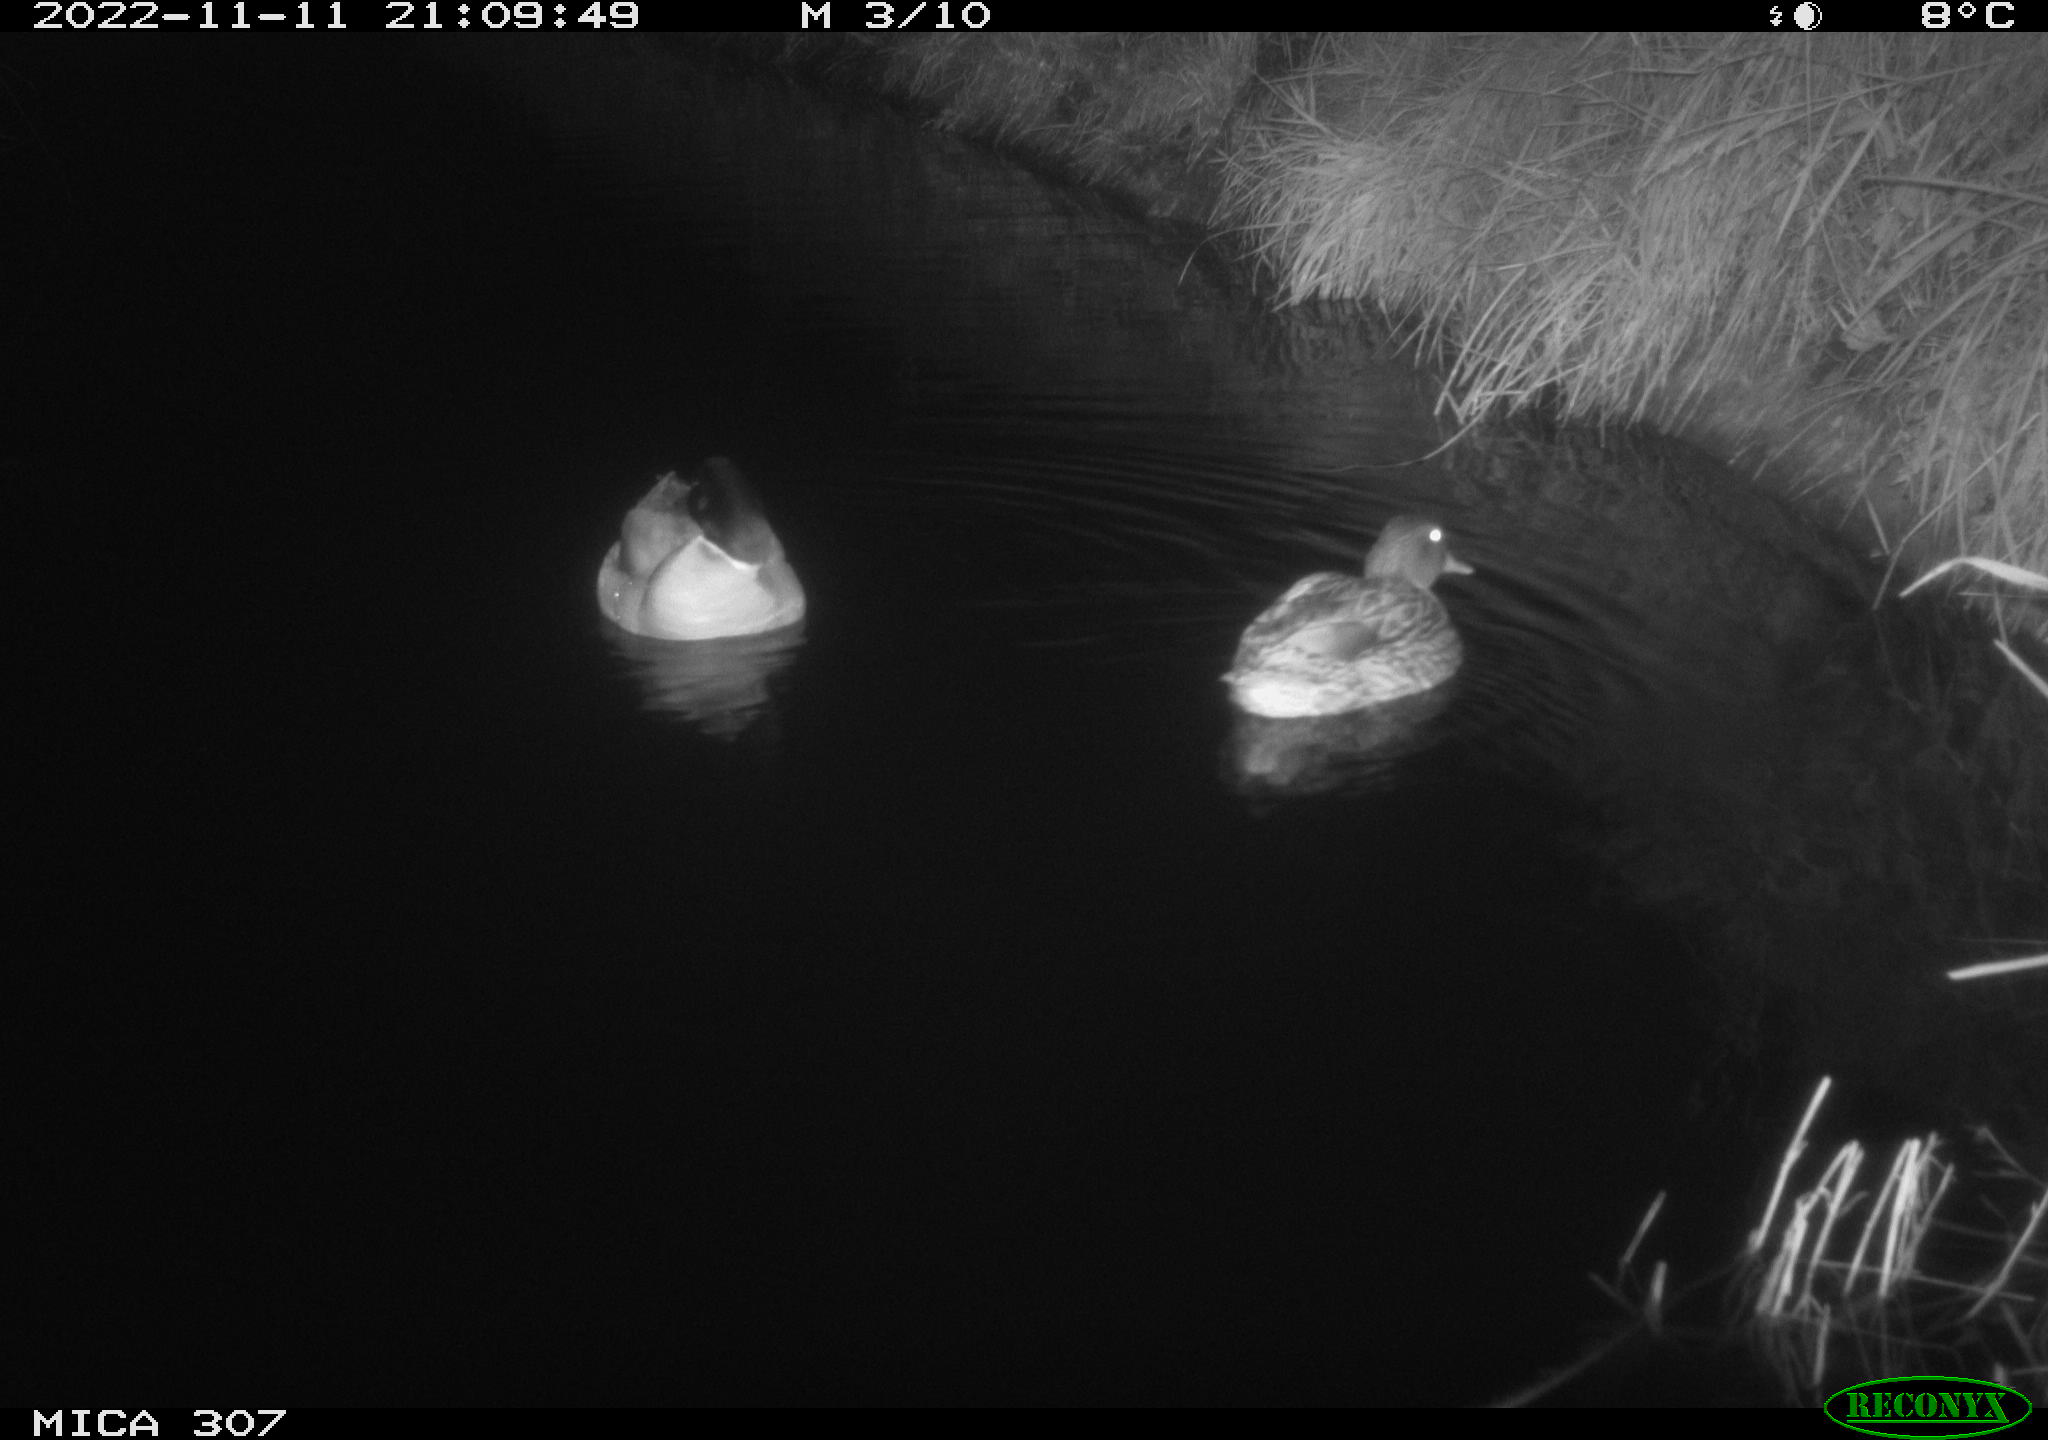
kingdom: Animalia
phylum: Chordata
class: Aves
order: Anseriformes
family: Anatidae
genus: Anas
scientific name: Anas
